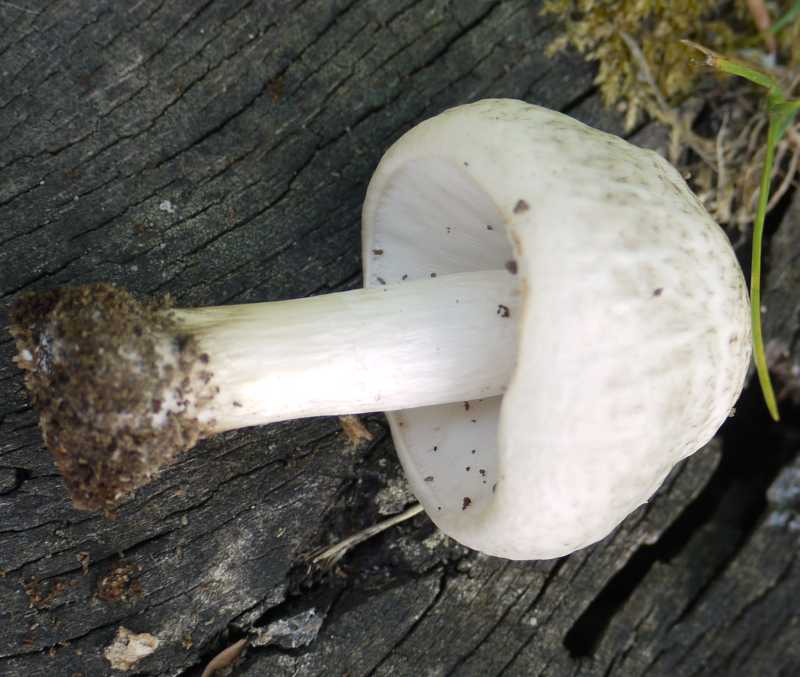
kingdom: Fungi
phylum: Basidiomycota
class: Agaricomycetes
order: Agaricales
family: Pluteaceae
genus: Pluteus
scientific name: Pluteus petasatus
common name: savsmulds-skærmhat
